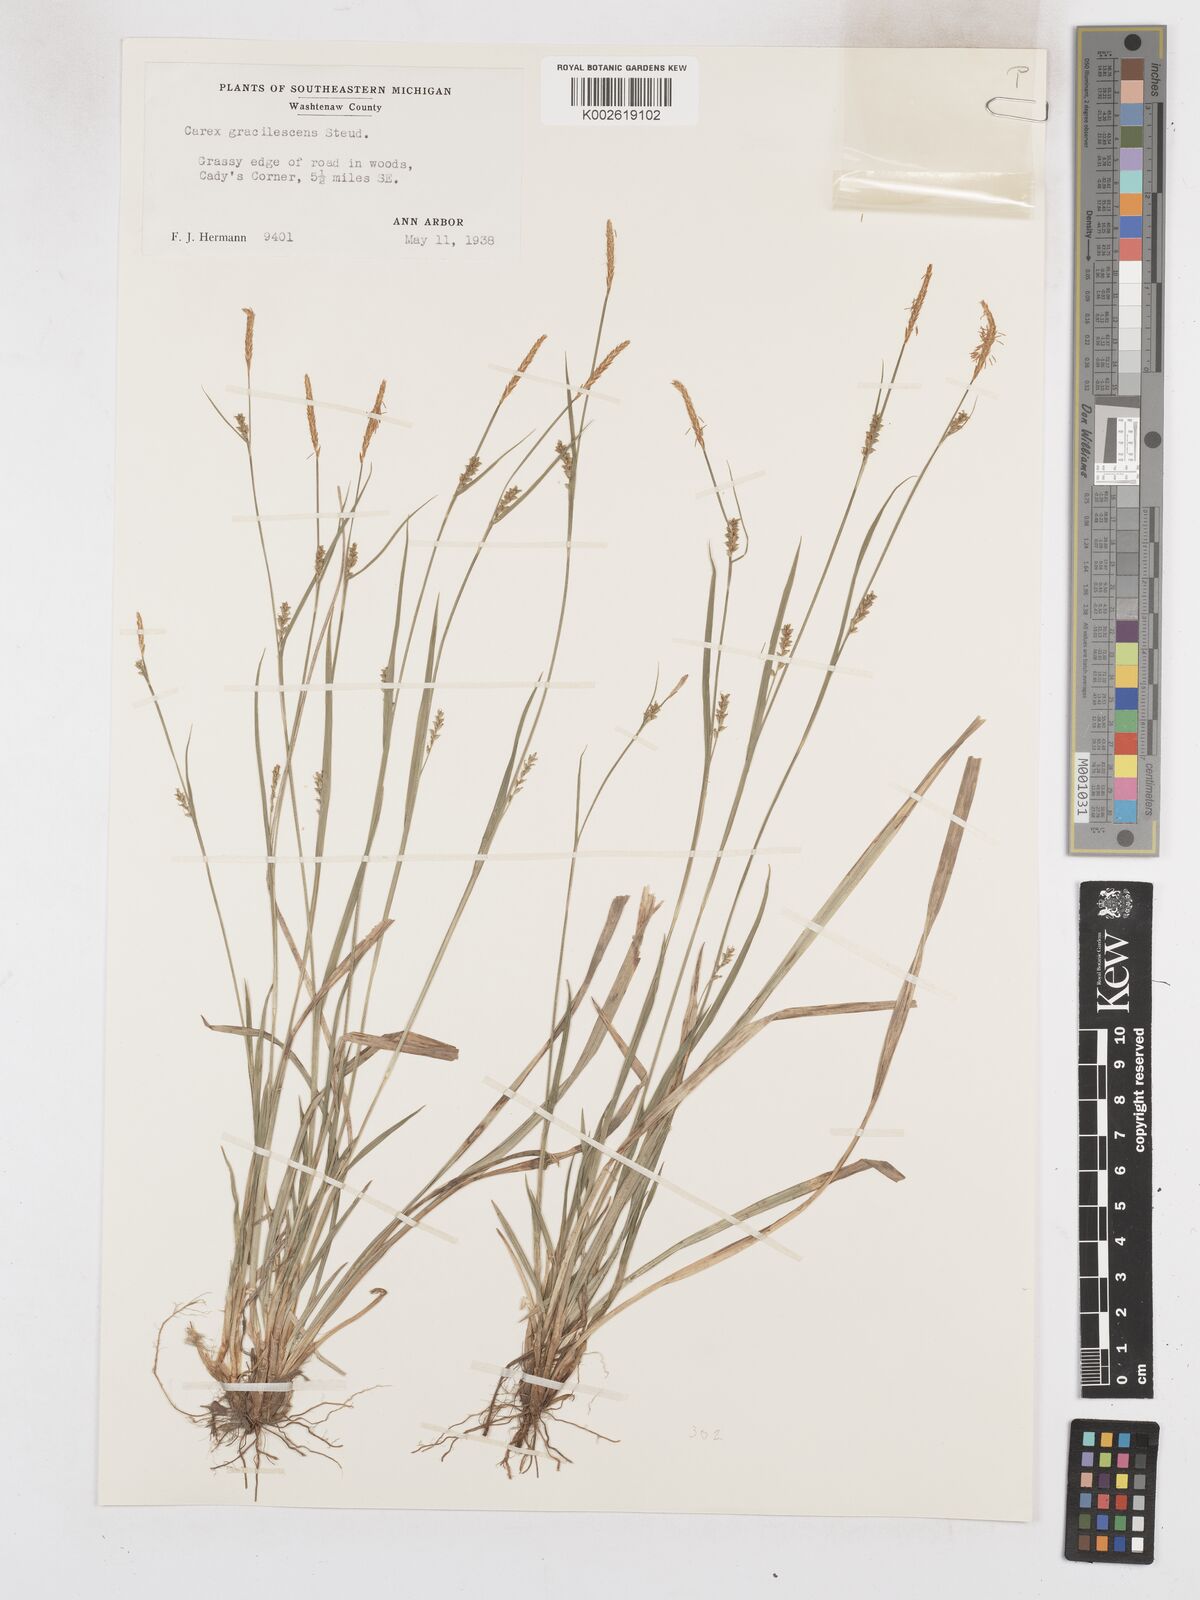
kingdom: Plantae
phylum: Tracheophyta
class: Liliopsida
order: Poales
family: Cyperaceae
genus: Carex
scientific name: Carex laxiflora
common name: Beech wood sedge
